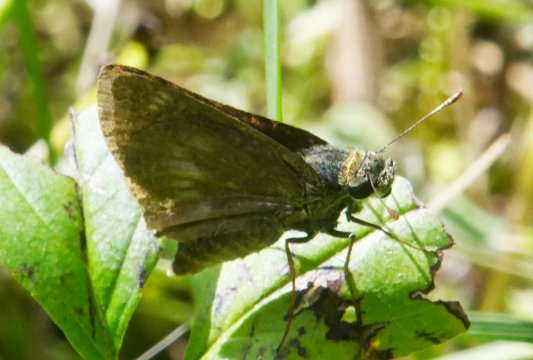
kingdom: Animalia
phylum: Arthropoda
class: Insecta
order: Lepidoptera
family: Hesperiidae
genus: Polites
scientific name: Polites egeremet
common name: Northern Broken-Dash
